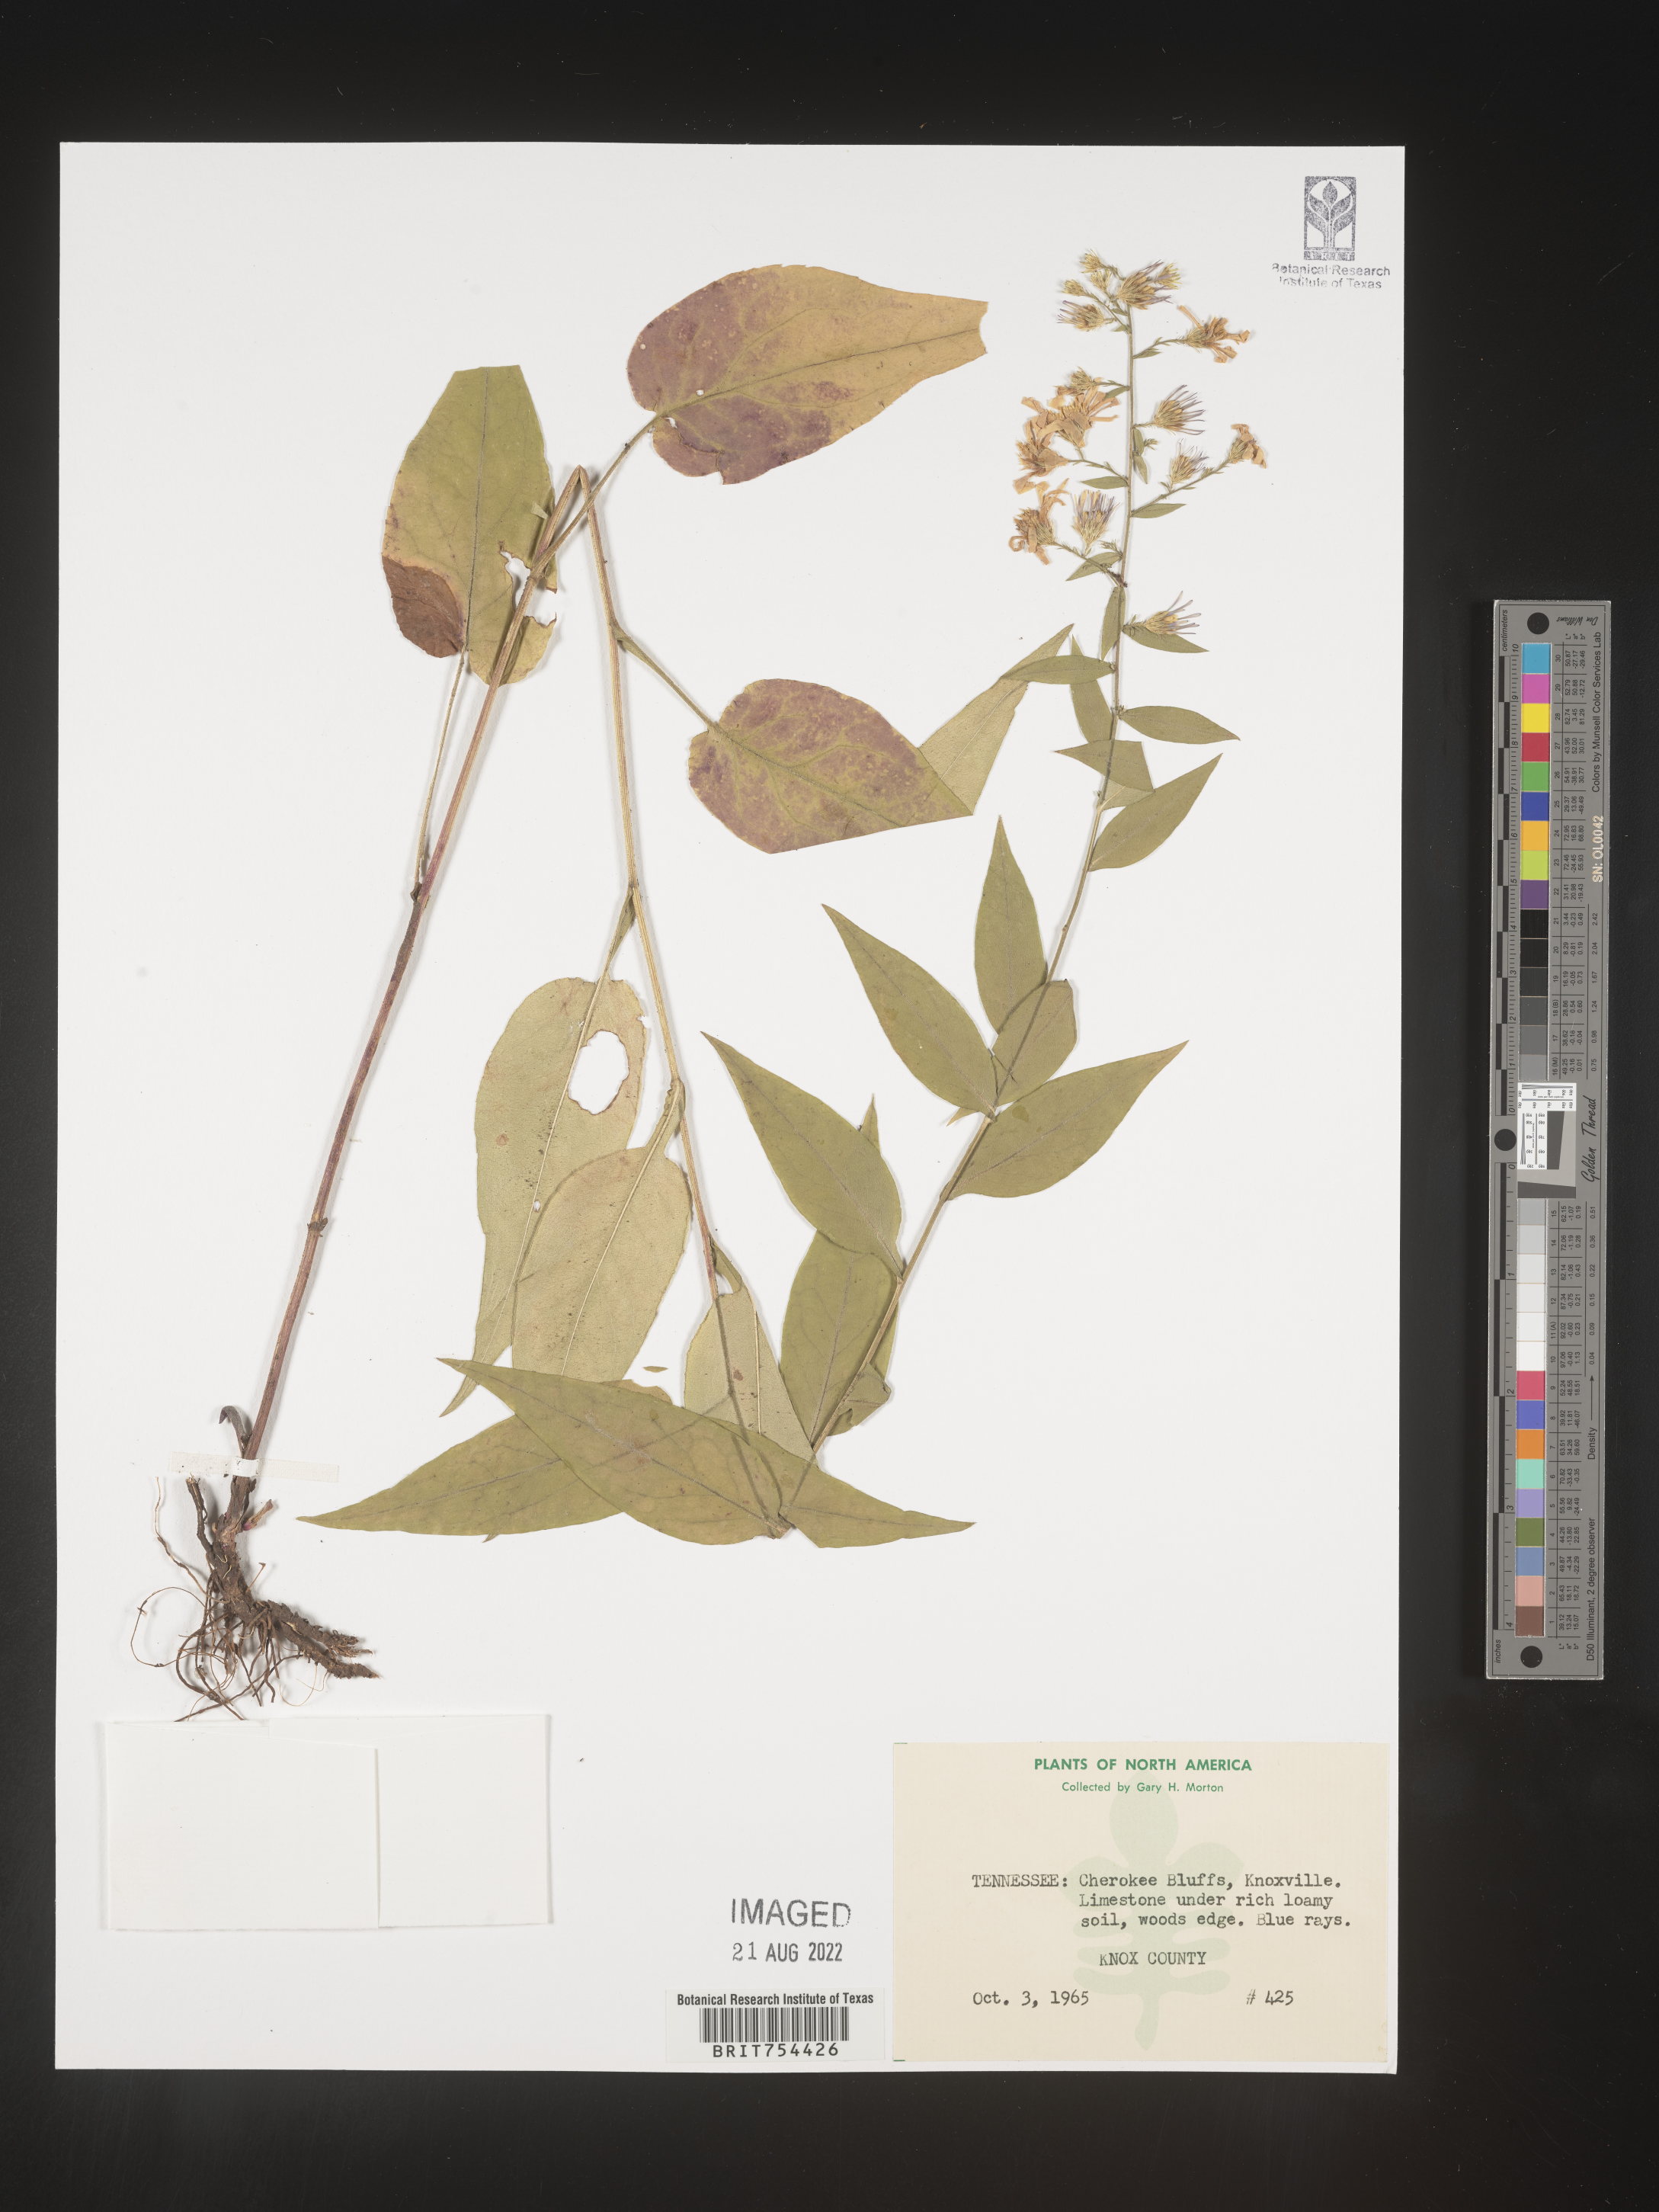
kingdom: Plantae
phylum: Tracheophyta
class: Magnoliopsida
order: Asterales
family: Asteraceae
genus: Symphyotrichum
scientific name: Symphyotrichum shortii
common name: Short's aster
